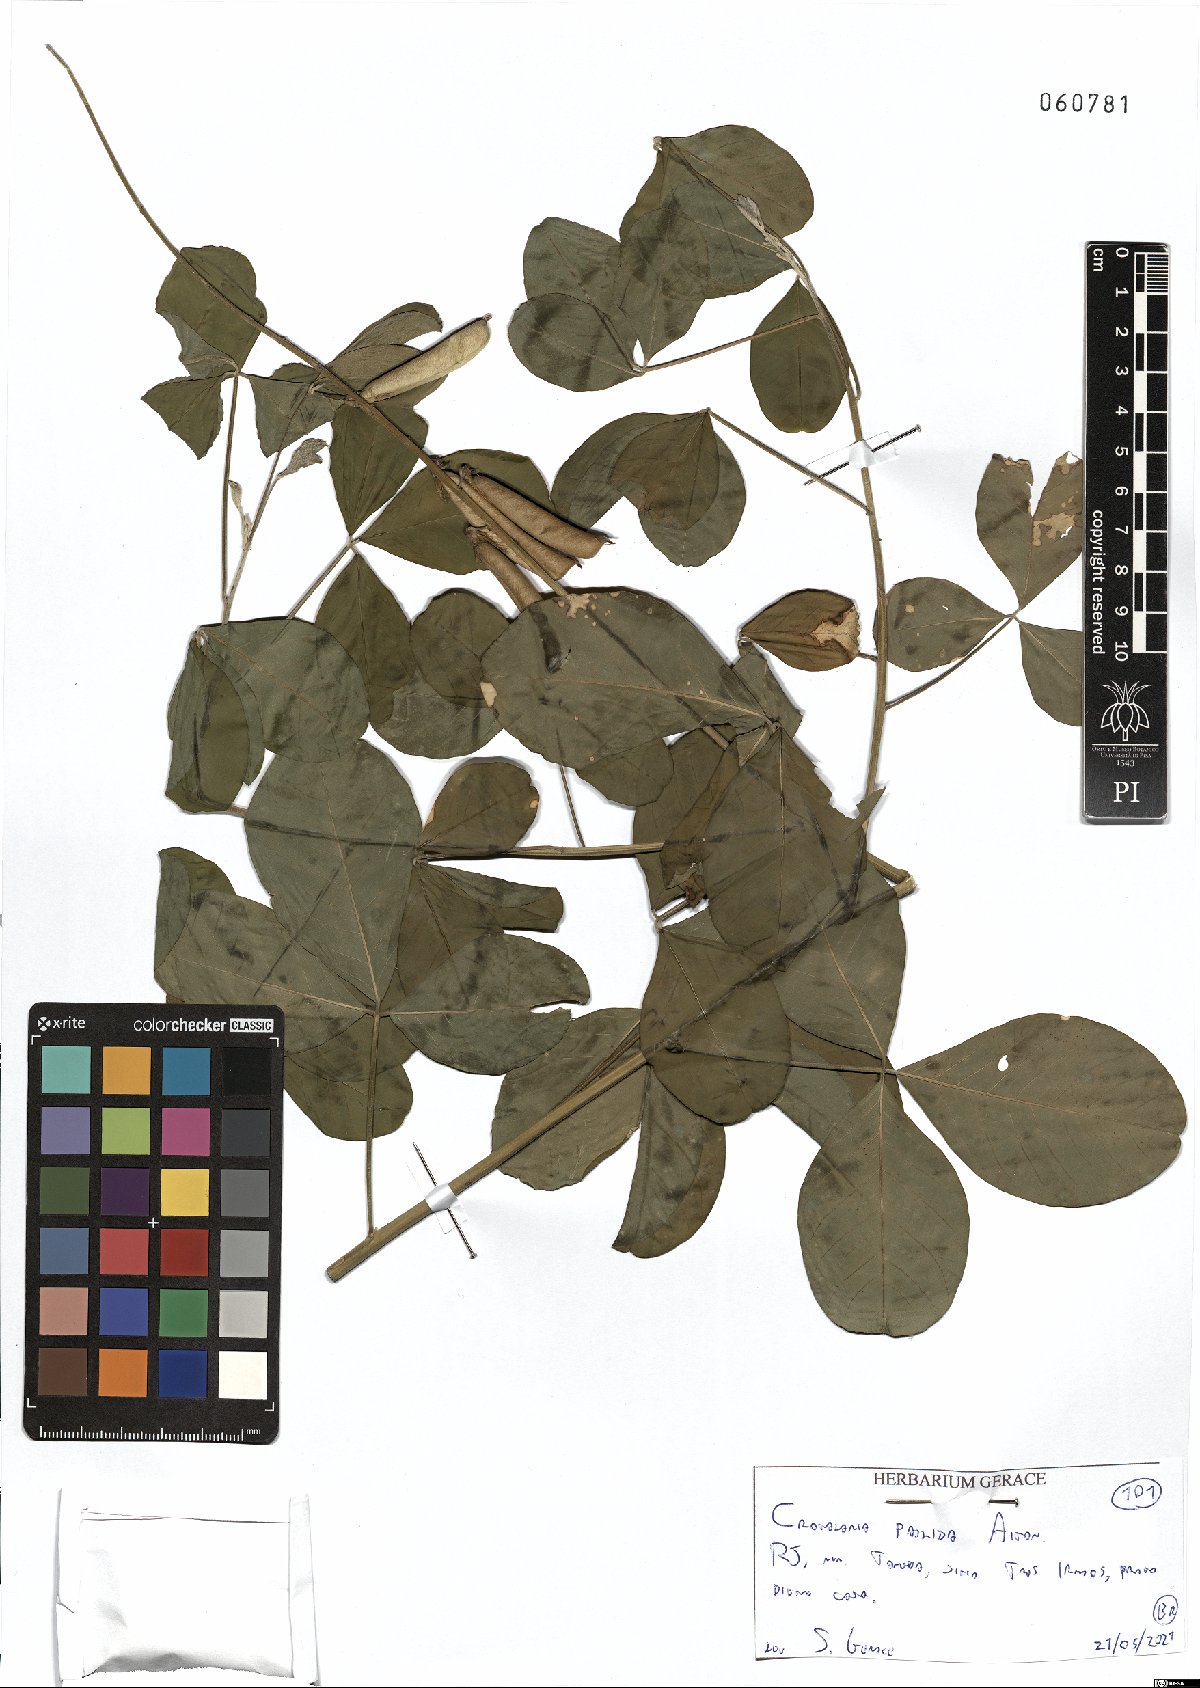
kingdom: Plantae
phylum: Tracheophyta
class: Magnoliopsida
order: Fabales
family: Fabaceae
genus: Crotalaria
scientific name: Crotalaria pallida
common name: Smooth rattlebox
